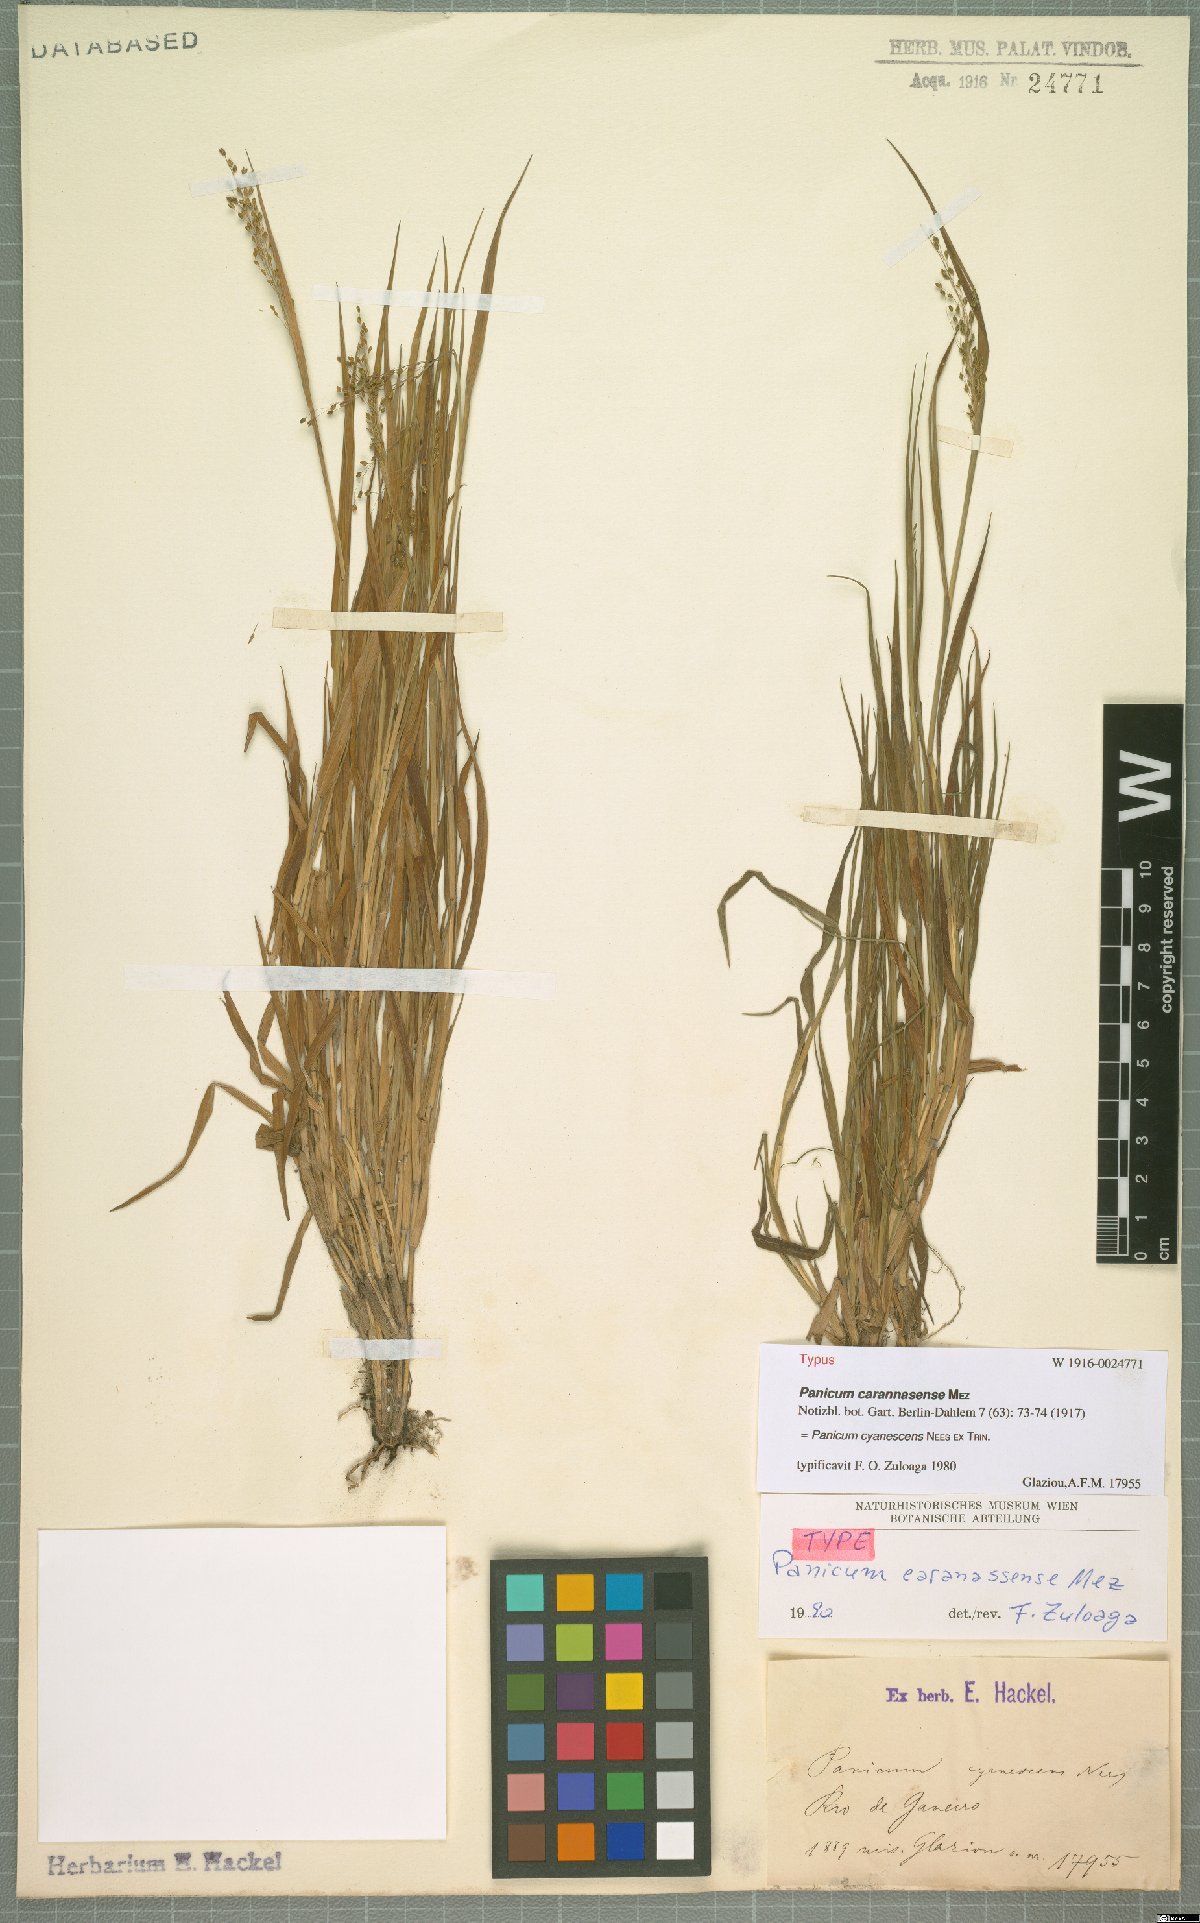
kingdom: Plantae
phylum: Tracheophyta
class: Liliopsida
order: Poales
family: Poaceae
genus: Trichanthecium
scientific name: Trichanthecium wettsteinii
